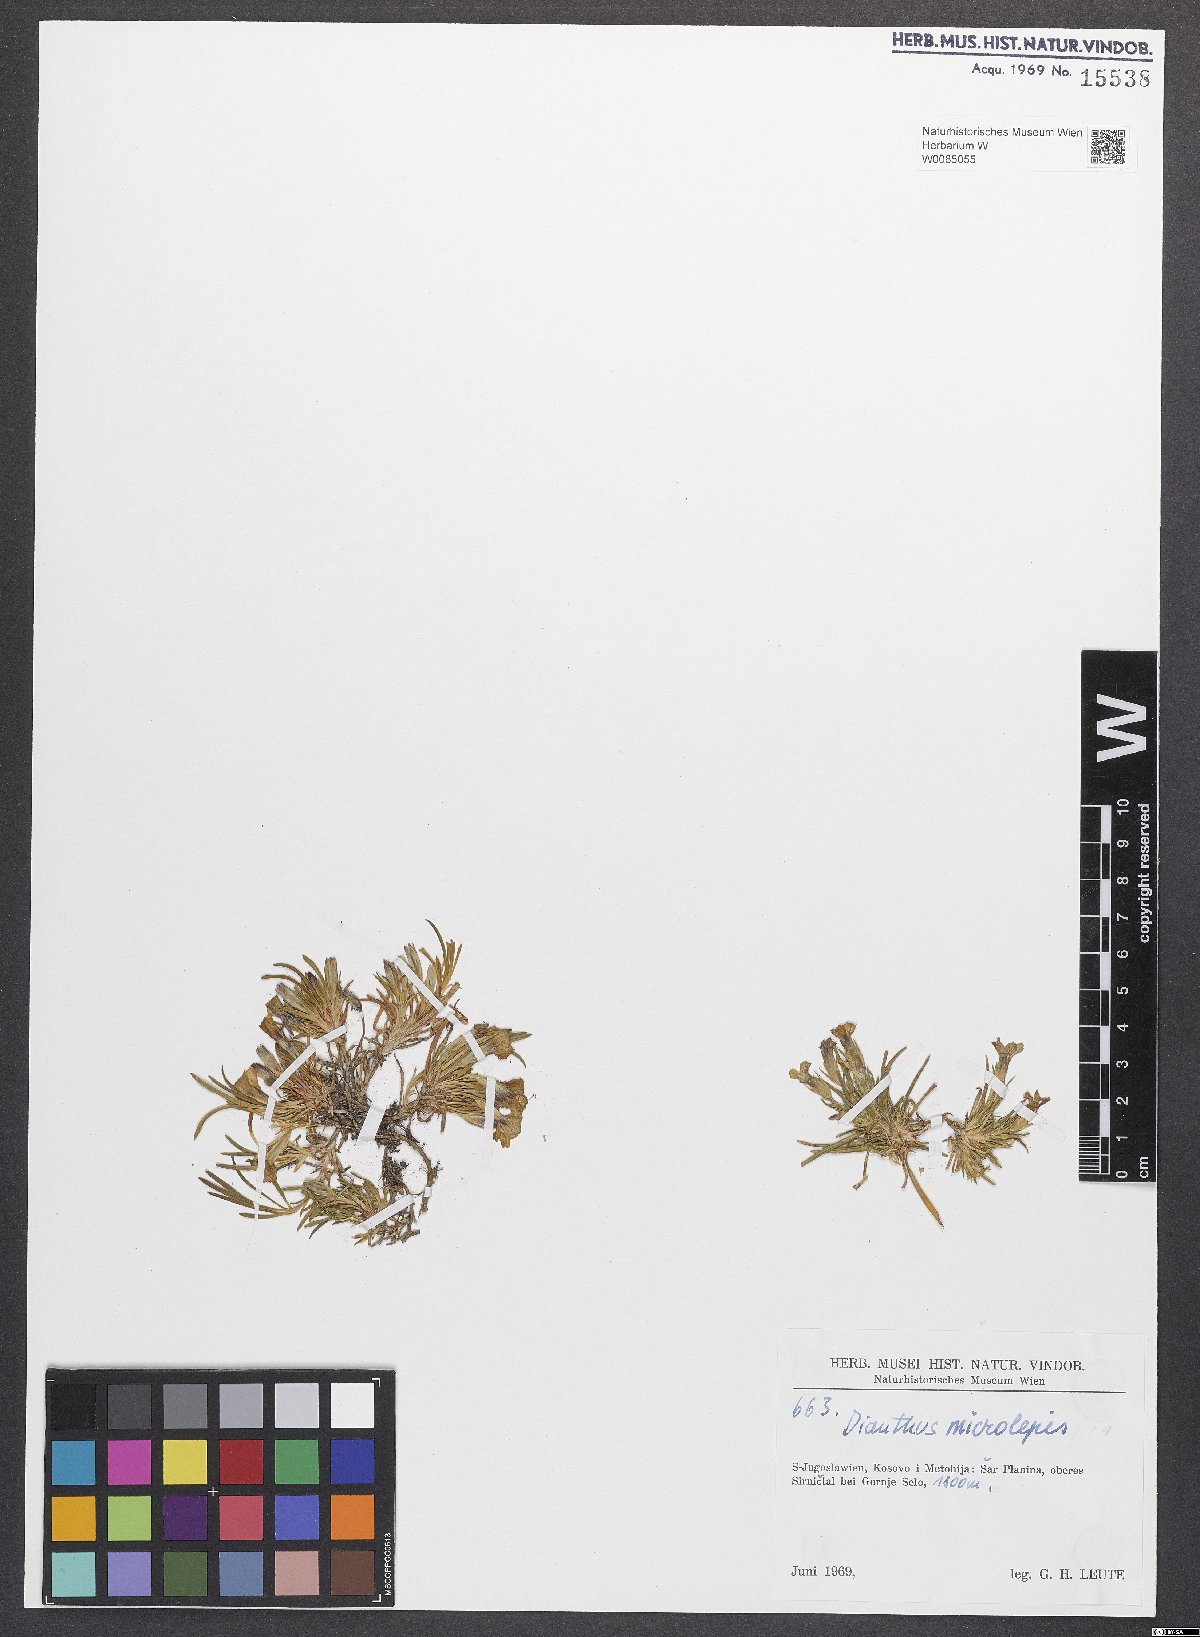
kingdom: Plantae
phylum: Tracheophyta
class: Magnoliopsida
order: Caryophyllales
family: Caryophyllaceae
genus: Dianthus
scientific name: Dianthus microlepis
